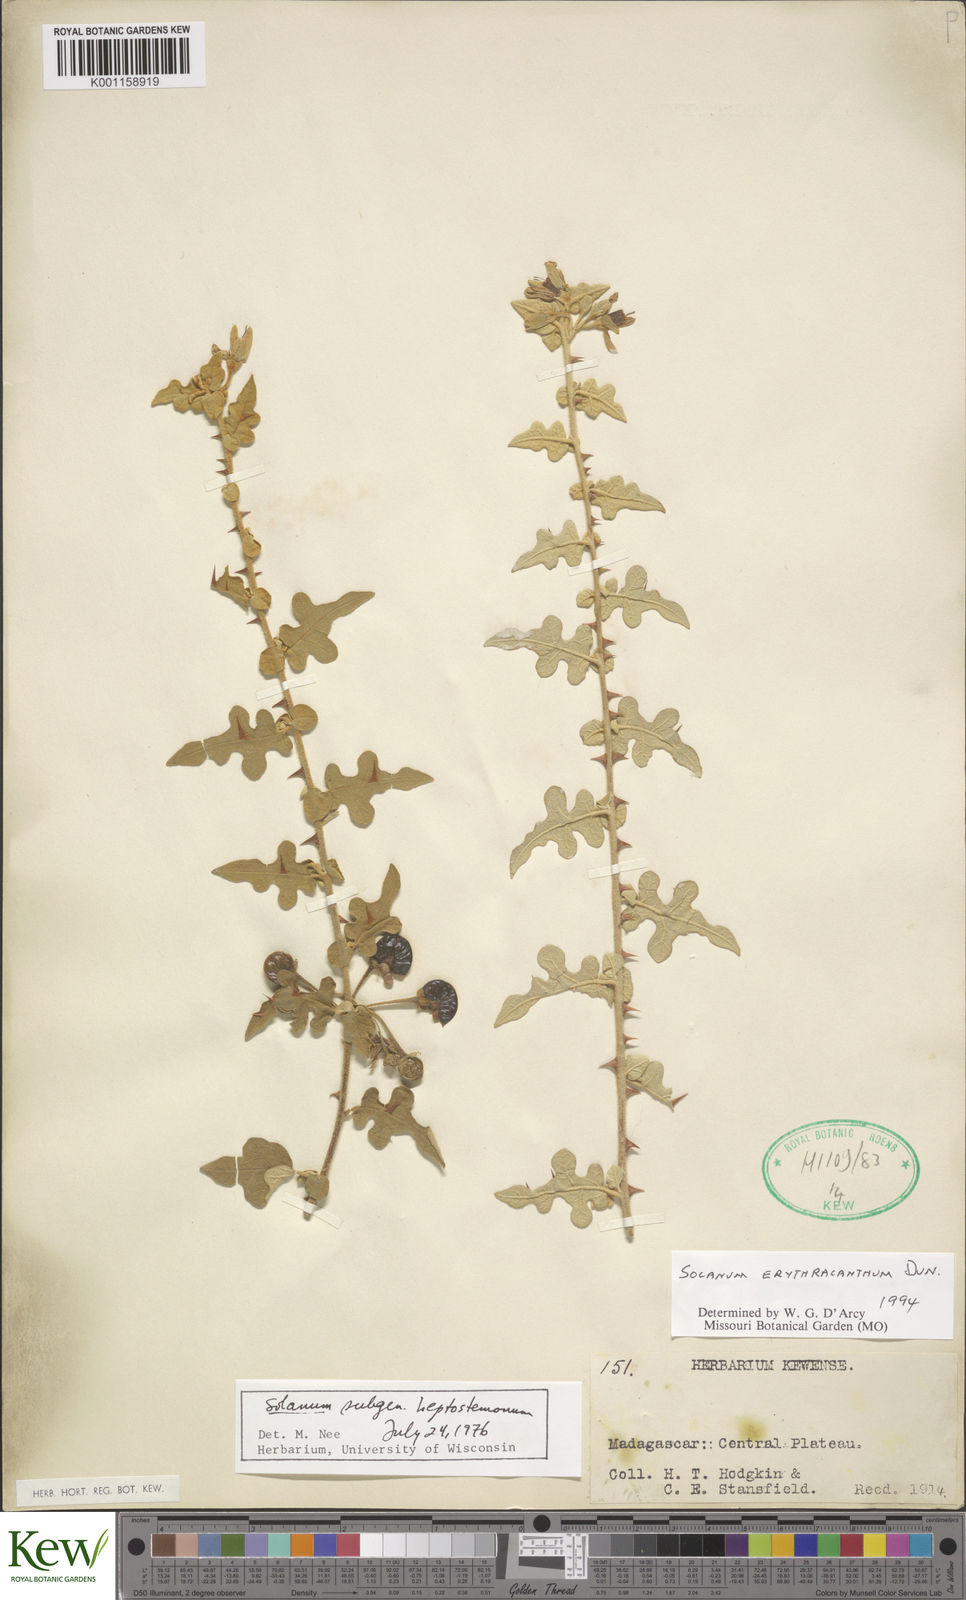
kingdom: Plantae
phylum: Tracheophyta
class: Magnoliopsida
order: Solanales
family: Solanaceae
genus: Solanum
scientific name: Solanum erythracanthum
